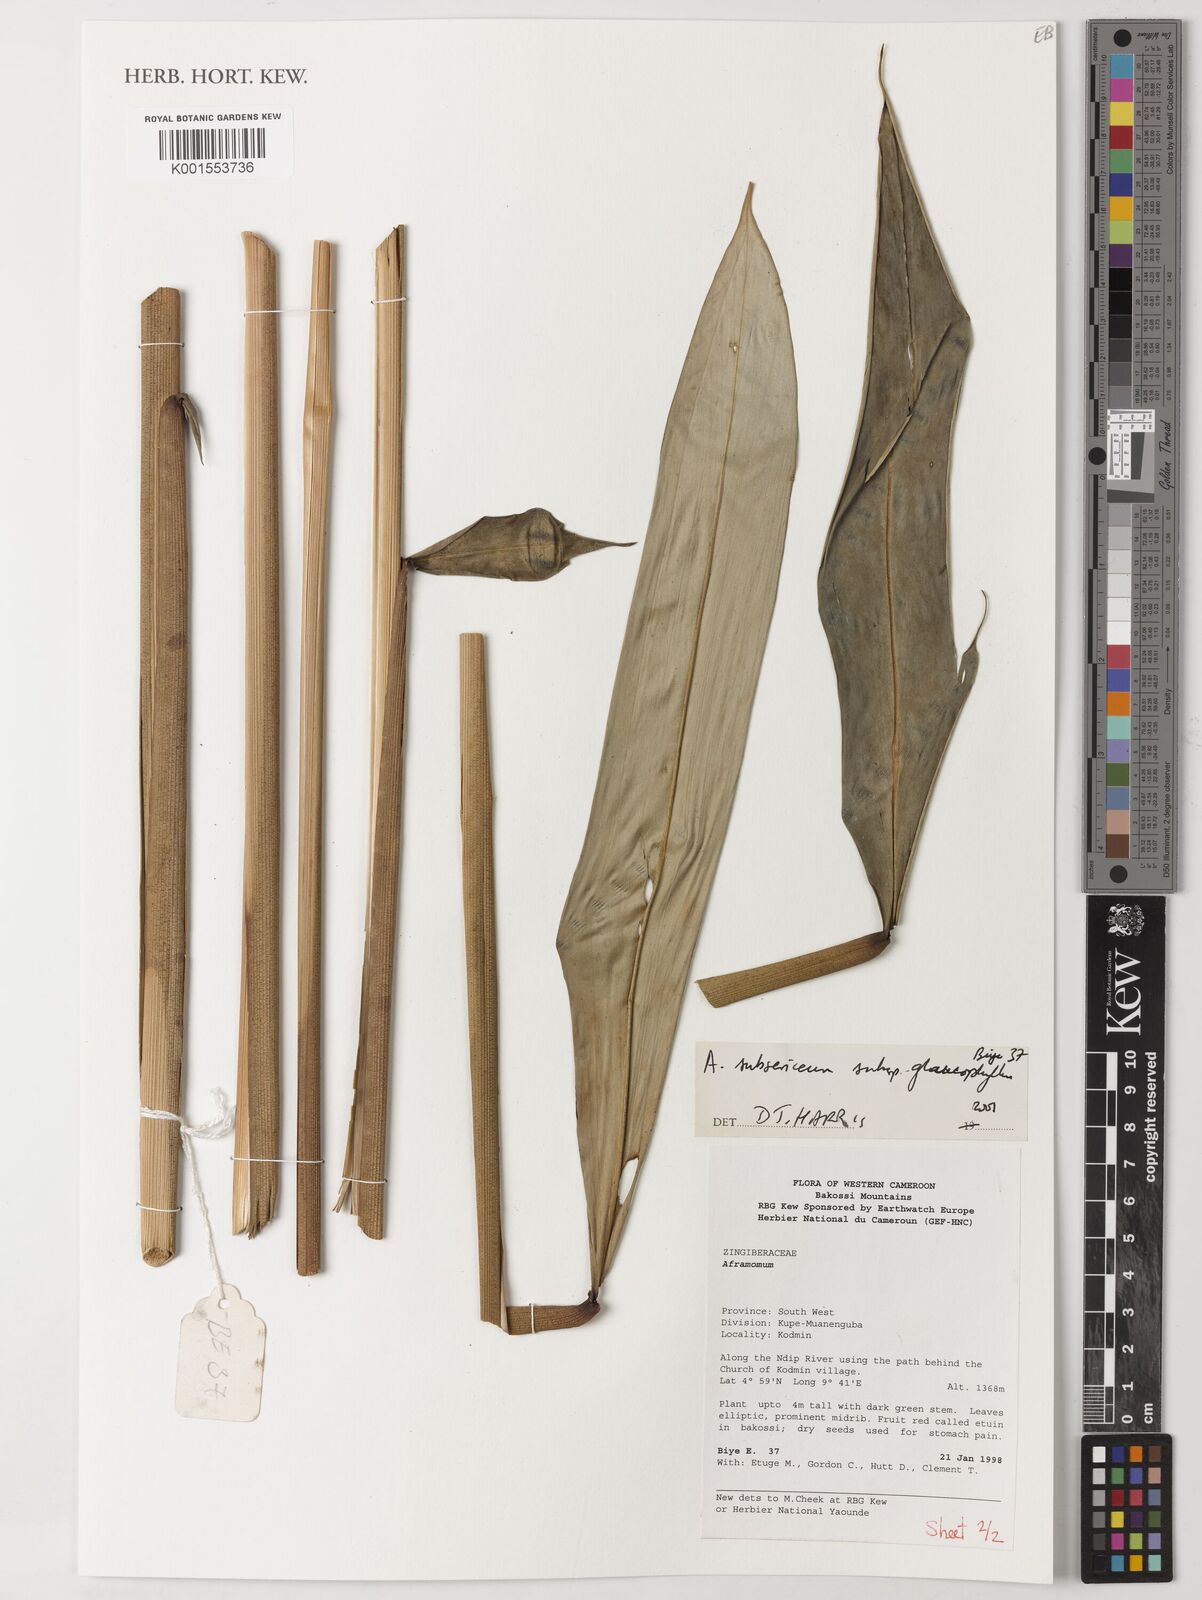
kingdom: Plantae
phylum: Tracheophyta
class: Liliopsida
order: Zingiberales
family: Zingiberaceae
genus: Aframomum
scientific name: Aframomum subsericeum
